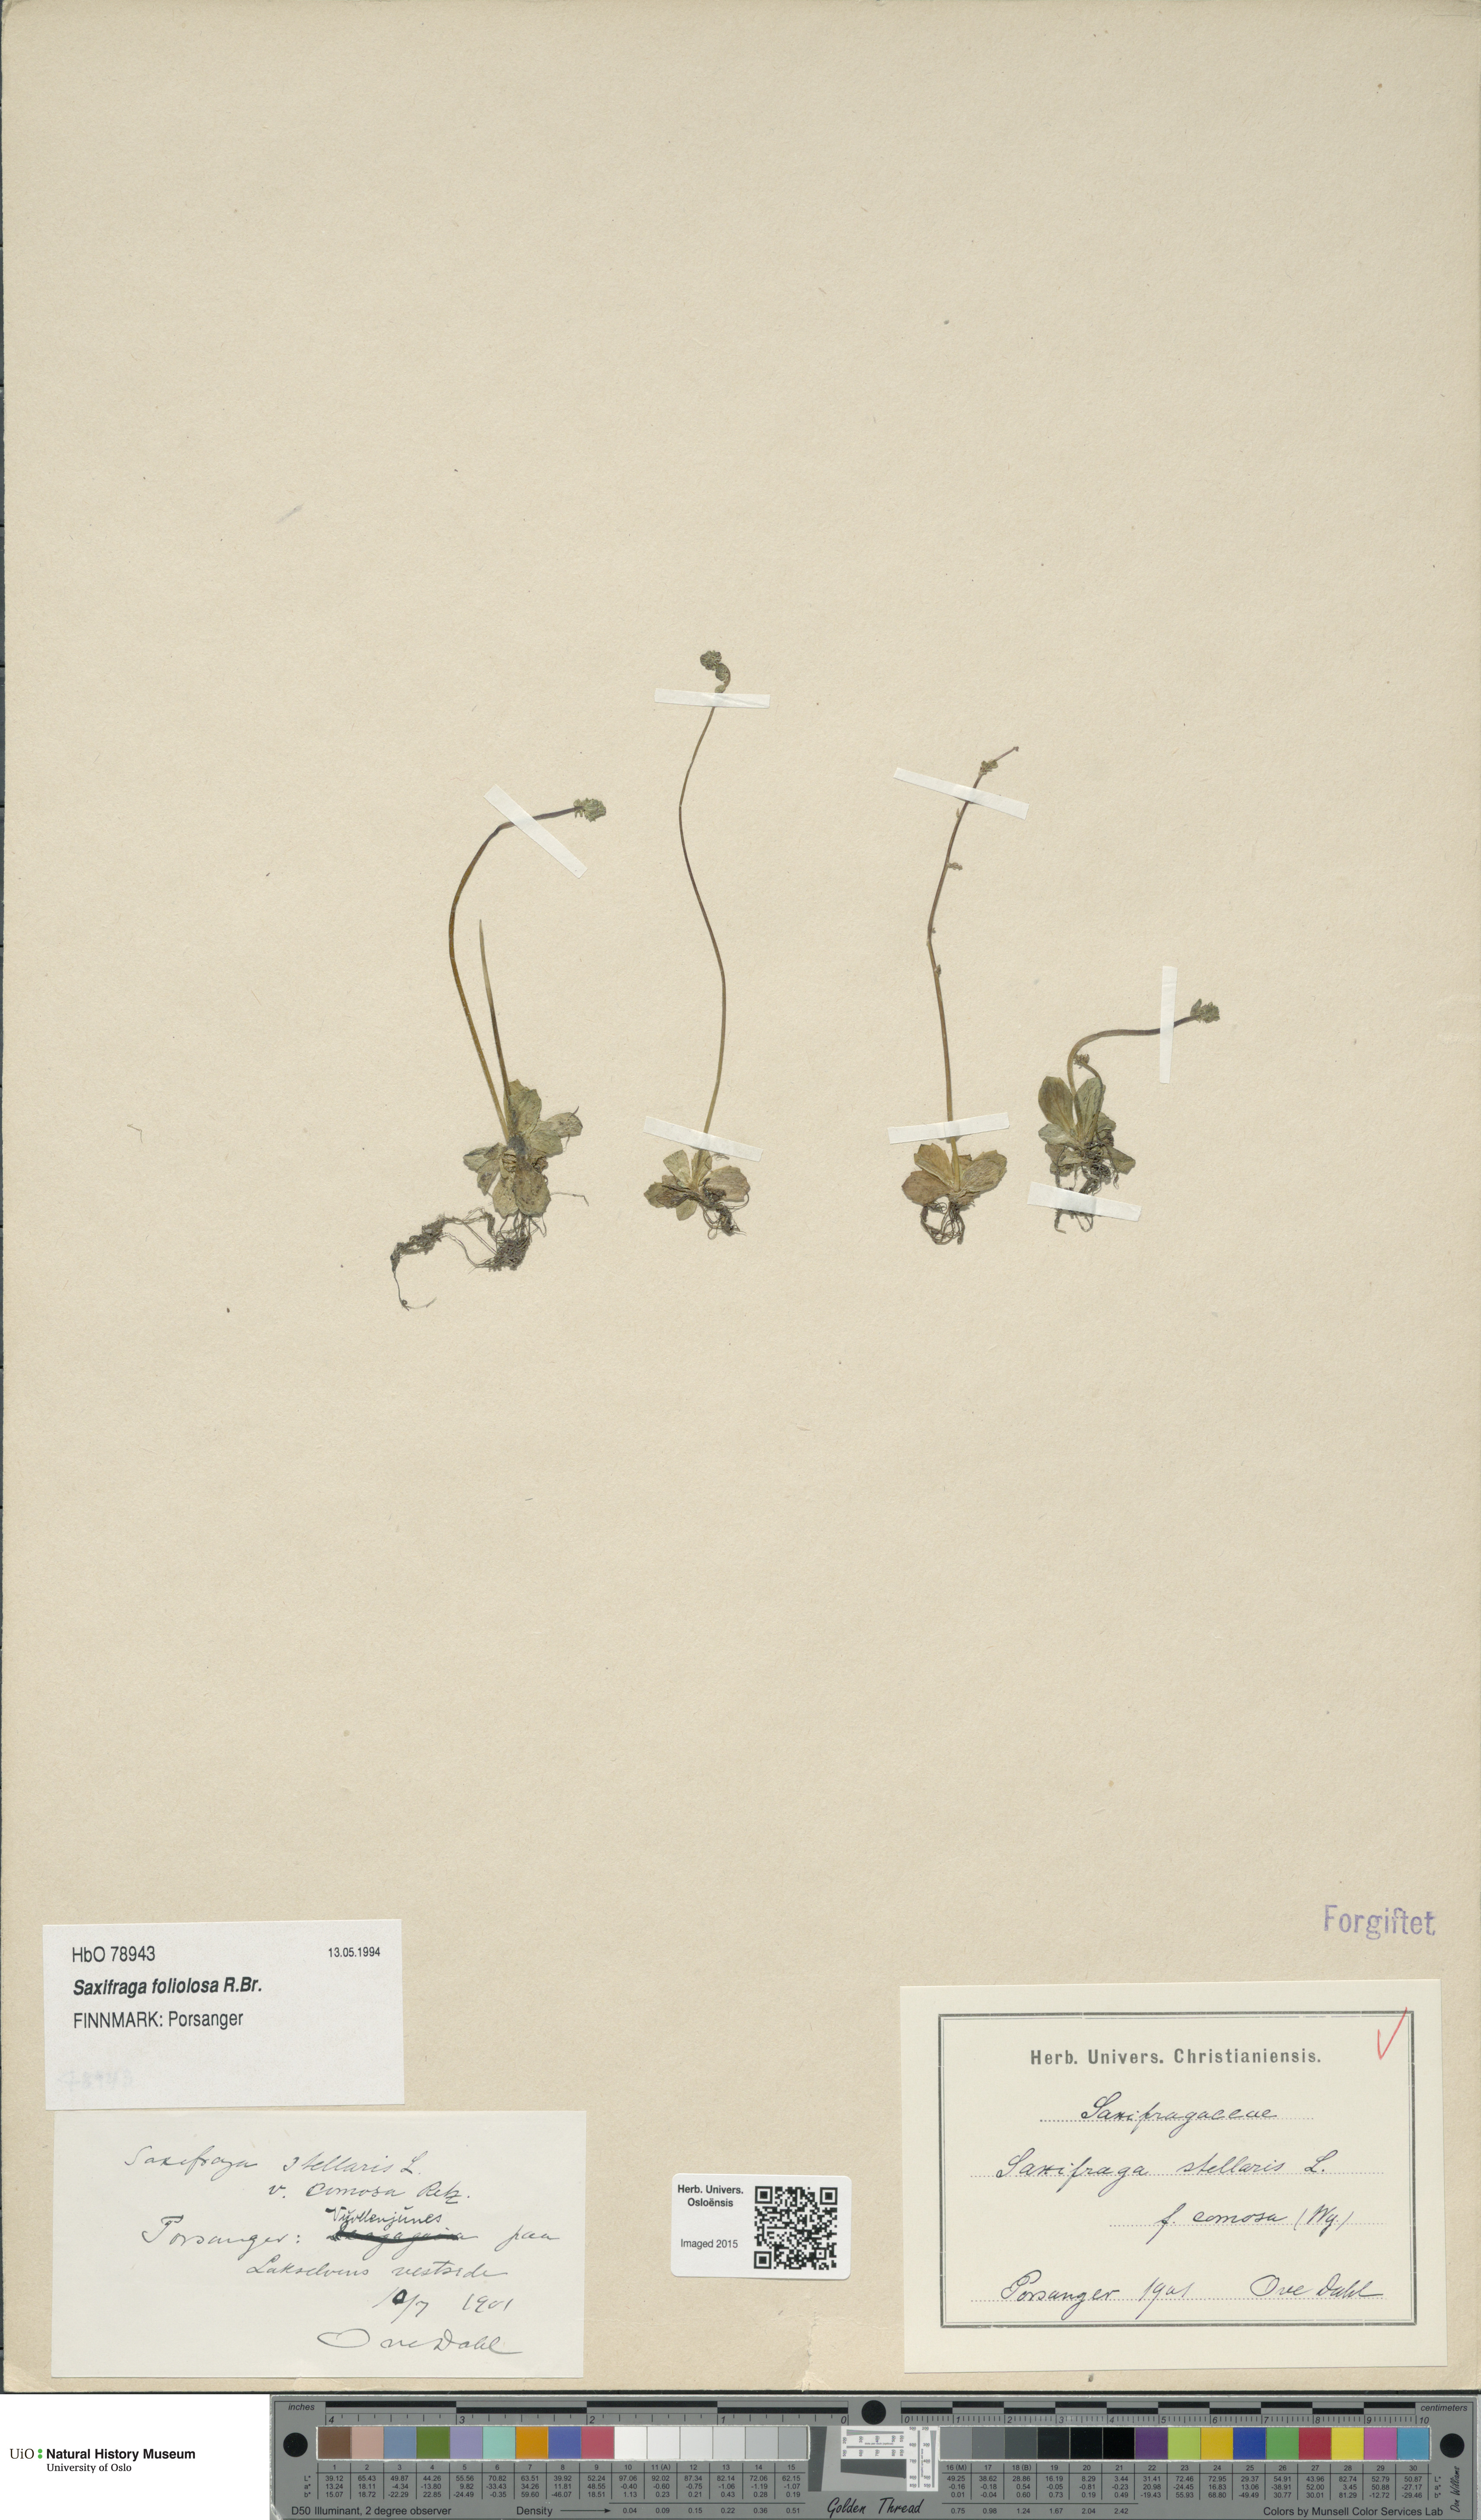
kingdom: Plantae
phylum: Tracheophyta
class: Magnoliopsida
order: Saxifragales
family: Saxifragaceae
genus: Micranthes
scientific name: Micranthes foliolosa
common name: Leafystem saxifrage
